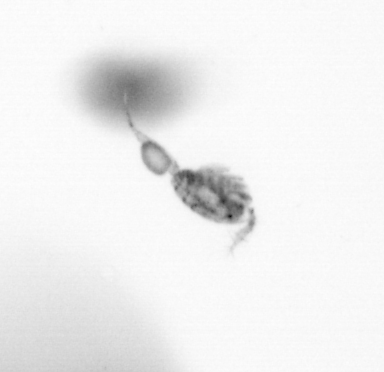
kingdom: Animalia
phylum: Arthropoda
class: Copepoda
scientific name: Copepoda
